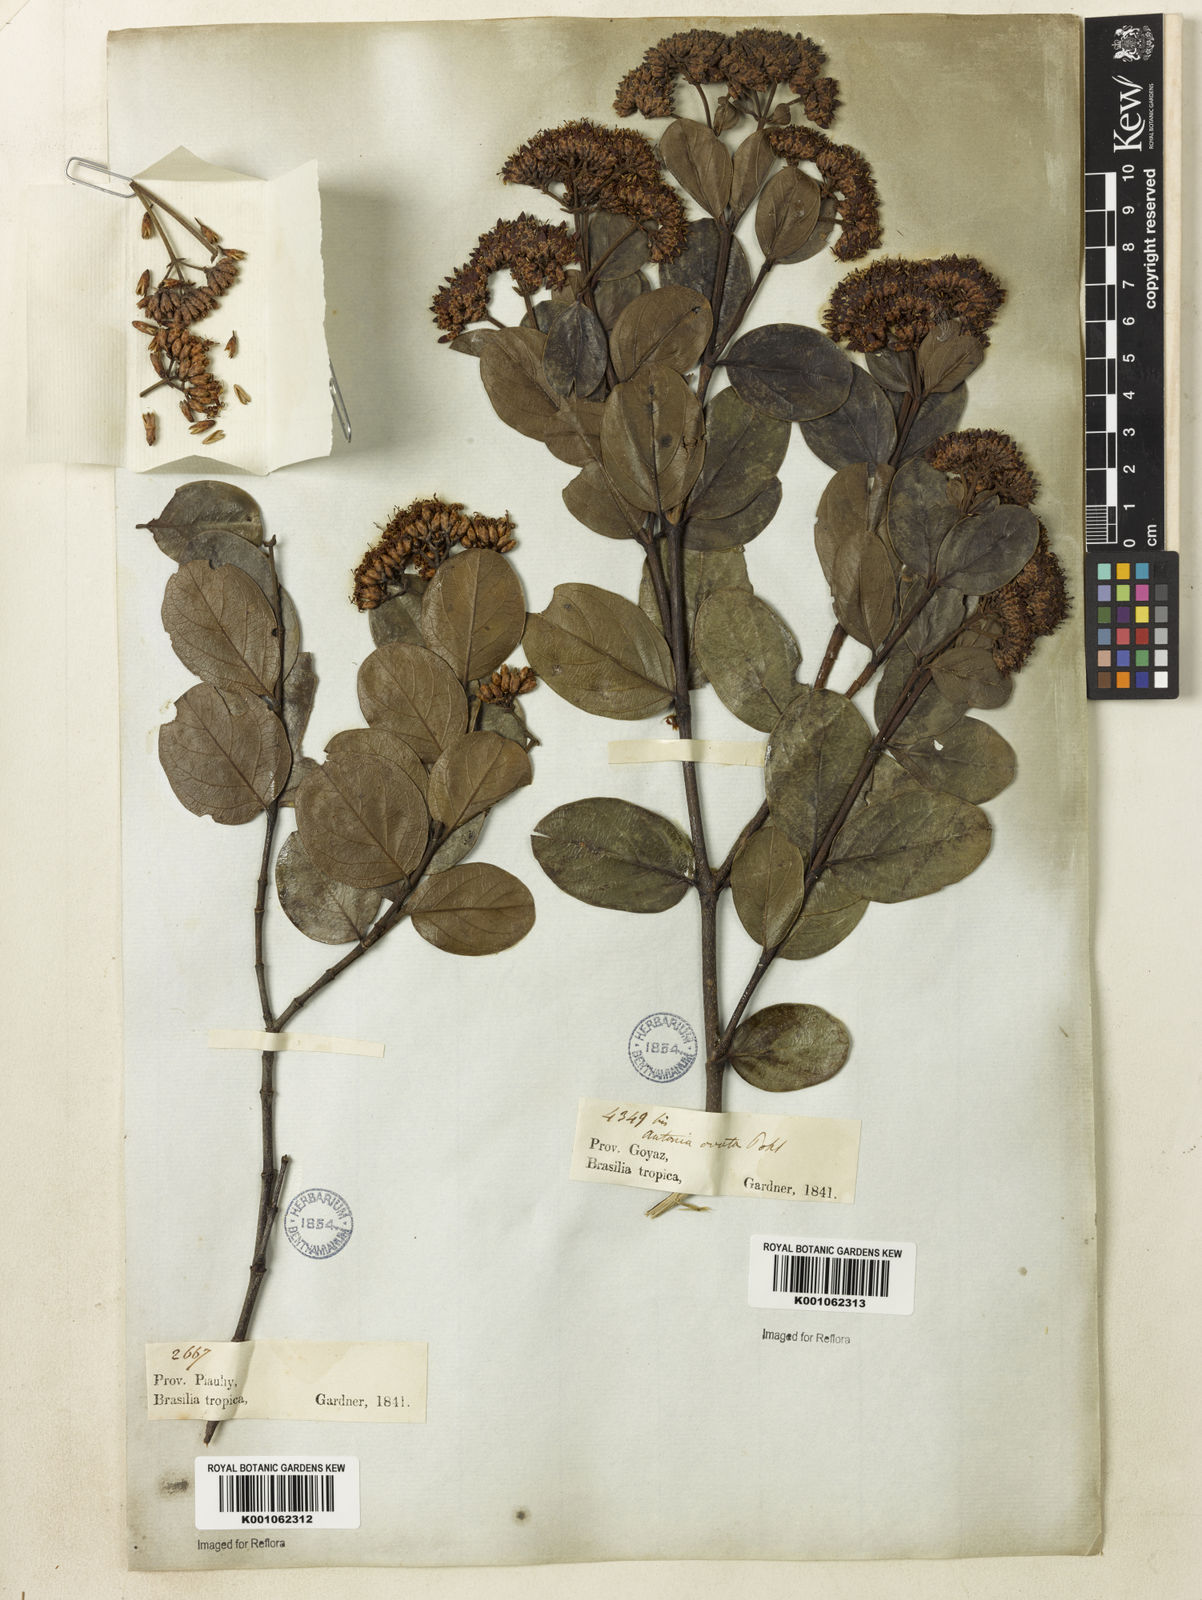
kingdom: Plantae
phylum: Tracheophyta
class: Magnoliopsida
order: Gentianales
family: Loganiaceae
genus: Antonia
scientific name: Antonia ovata
